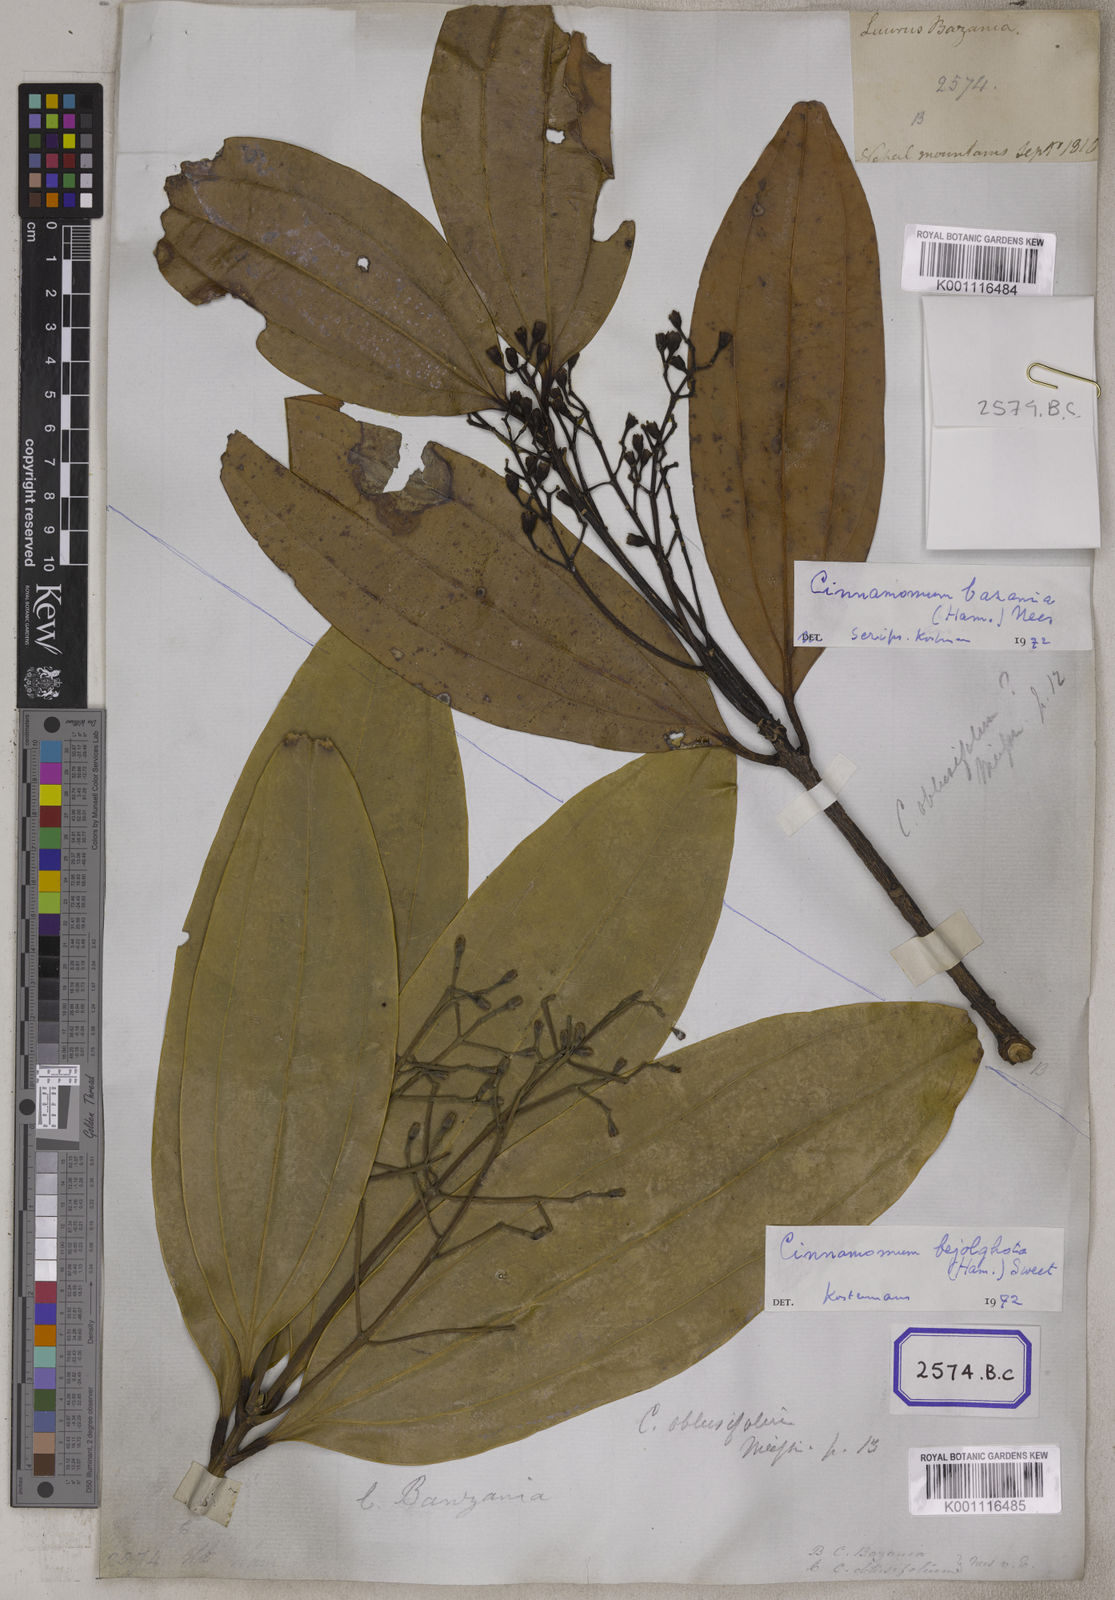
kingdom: Plantae
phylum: Tracheophyta
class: Magnoliopsida
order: Laurales
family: Lauraceae
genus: Cinnamomum
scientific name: Cinnamomum bejolghota
